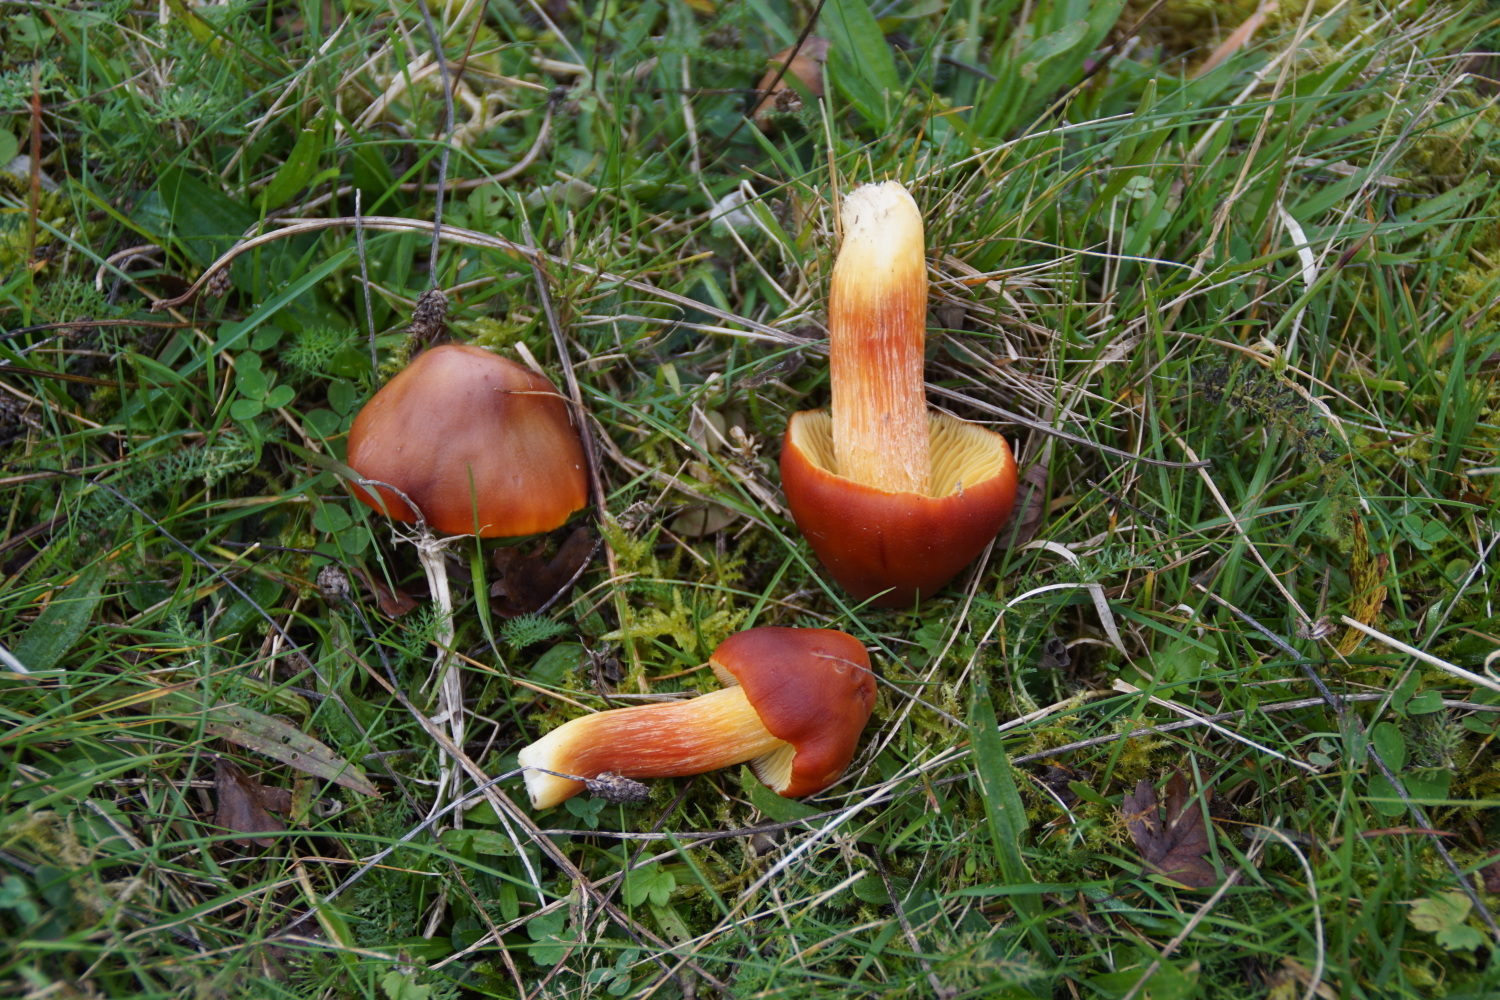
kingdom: Fungi
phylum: Basidiomycota
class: Agaricomycetes
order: Agaricales
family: Hygrophoraceae
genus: Hygrocybe
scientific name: Hygrocybe punicea
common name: skarlagen-vokshat
